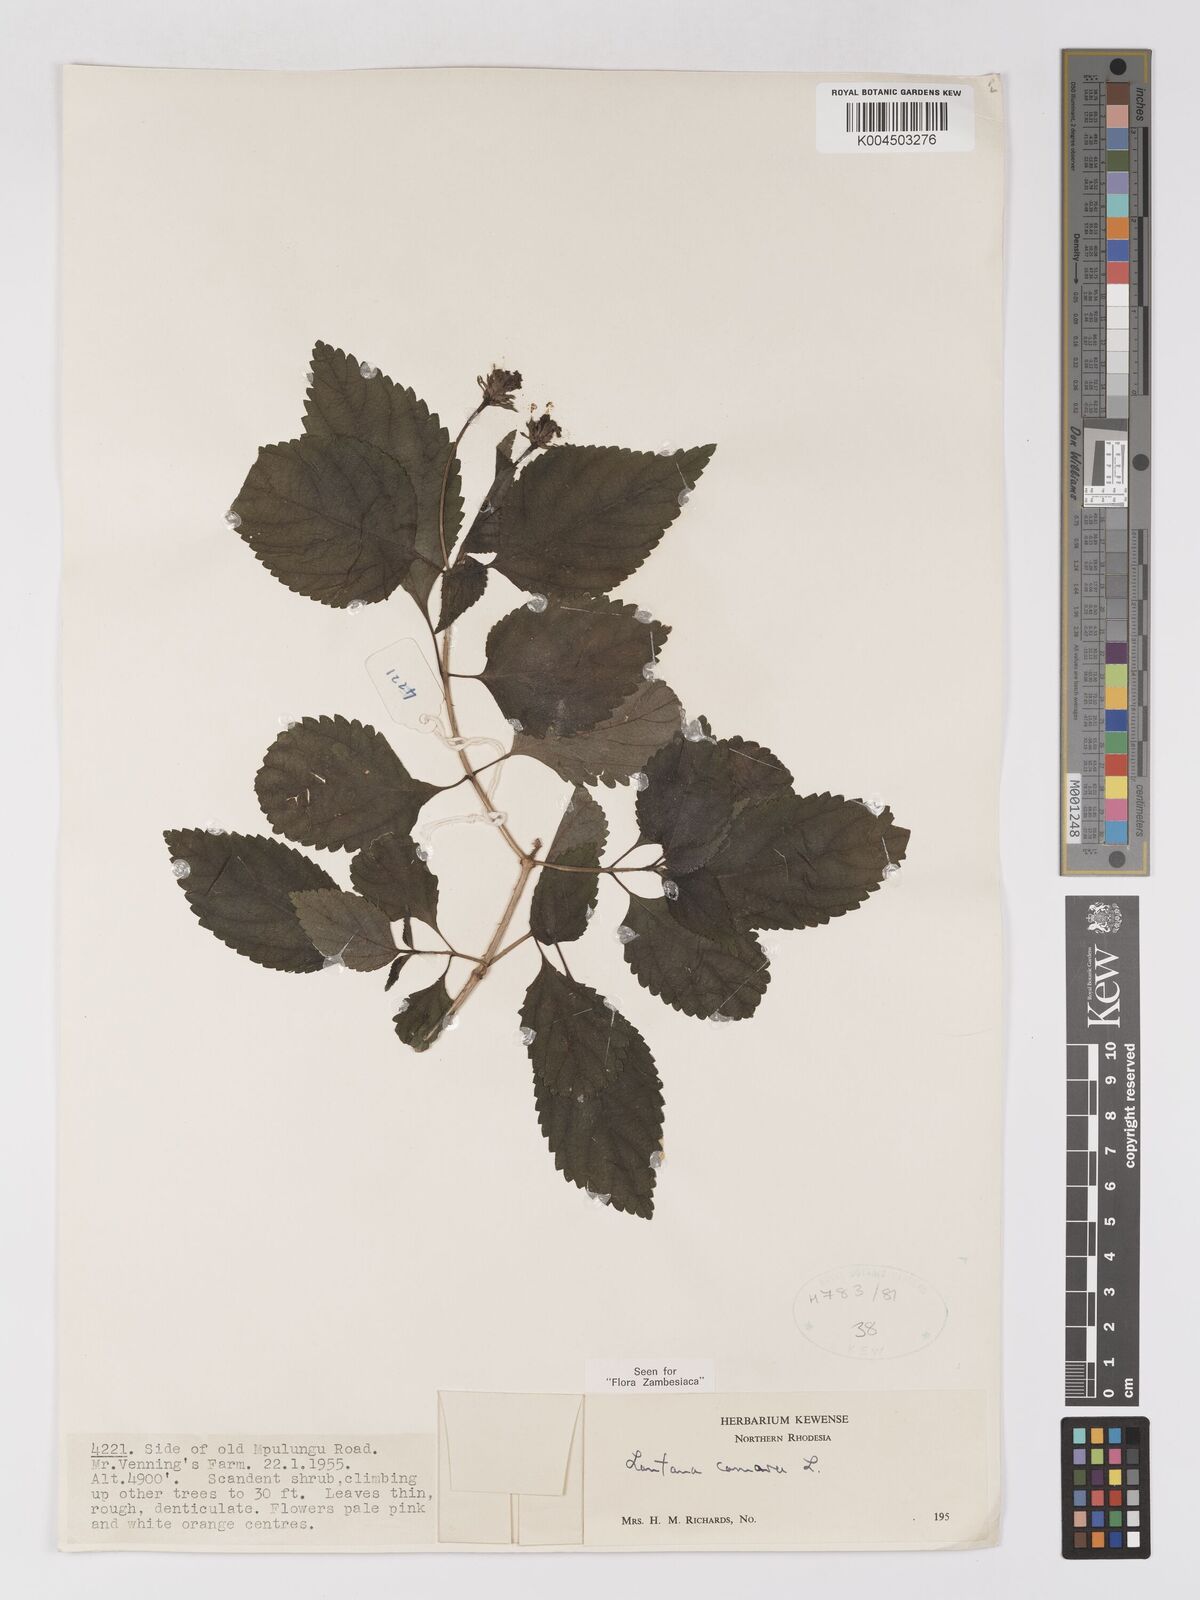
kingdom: Plantae
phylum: Tracheophyta
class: Magnoliopsida
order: Lamiales
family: Verbenaceae
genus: Lantana
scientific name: Lantana camara
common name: Lantana
